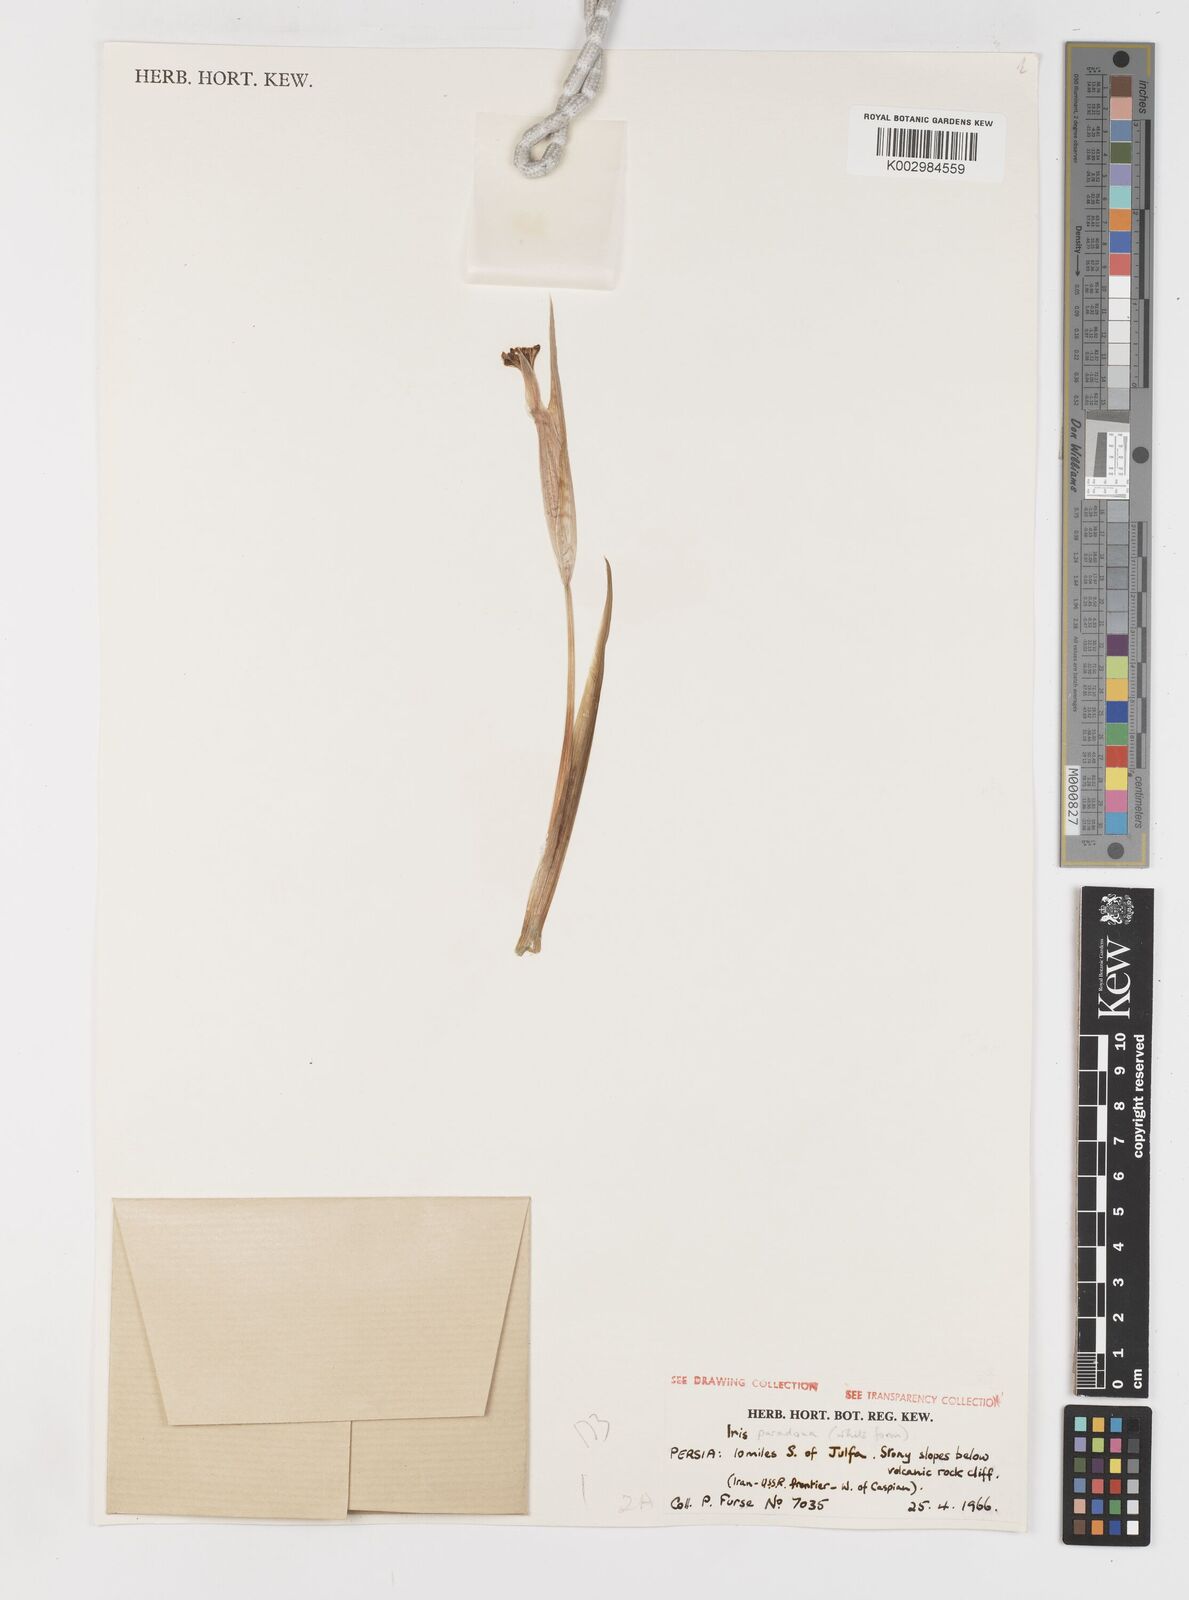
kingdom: Plantae
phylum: Tracheophyta
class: Liliopsida
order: Asparagales
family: Iridaceae
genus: Iris
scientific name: Iris paradoxa
